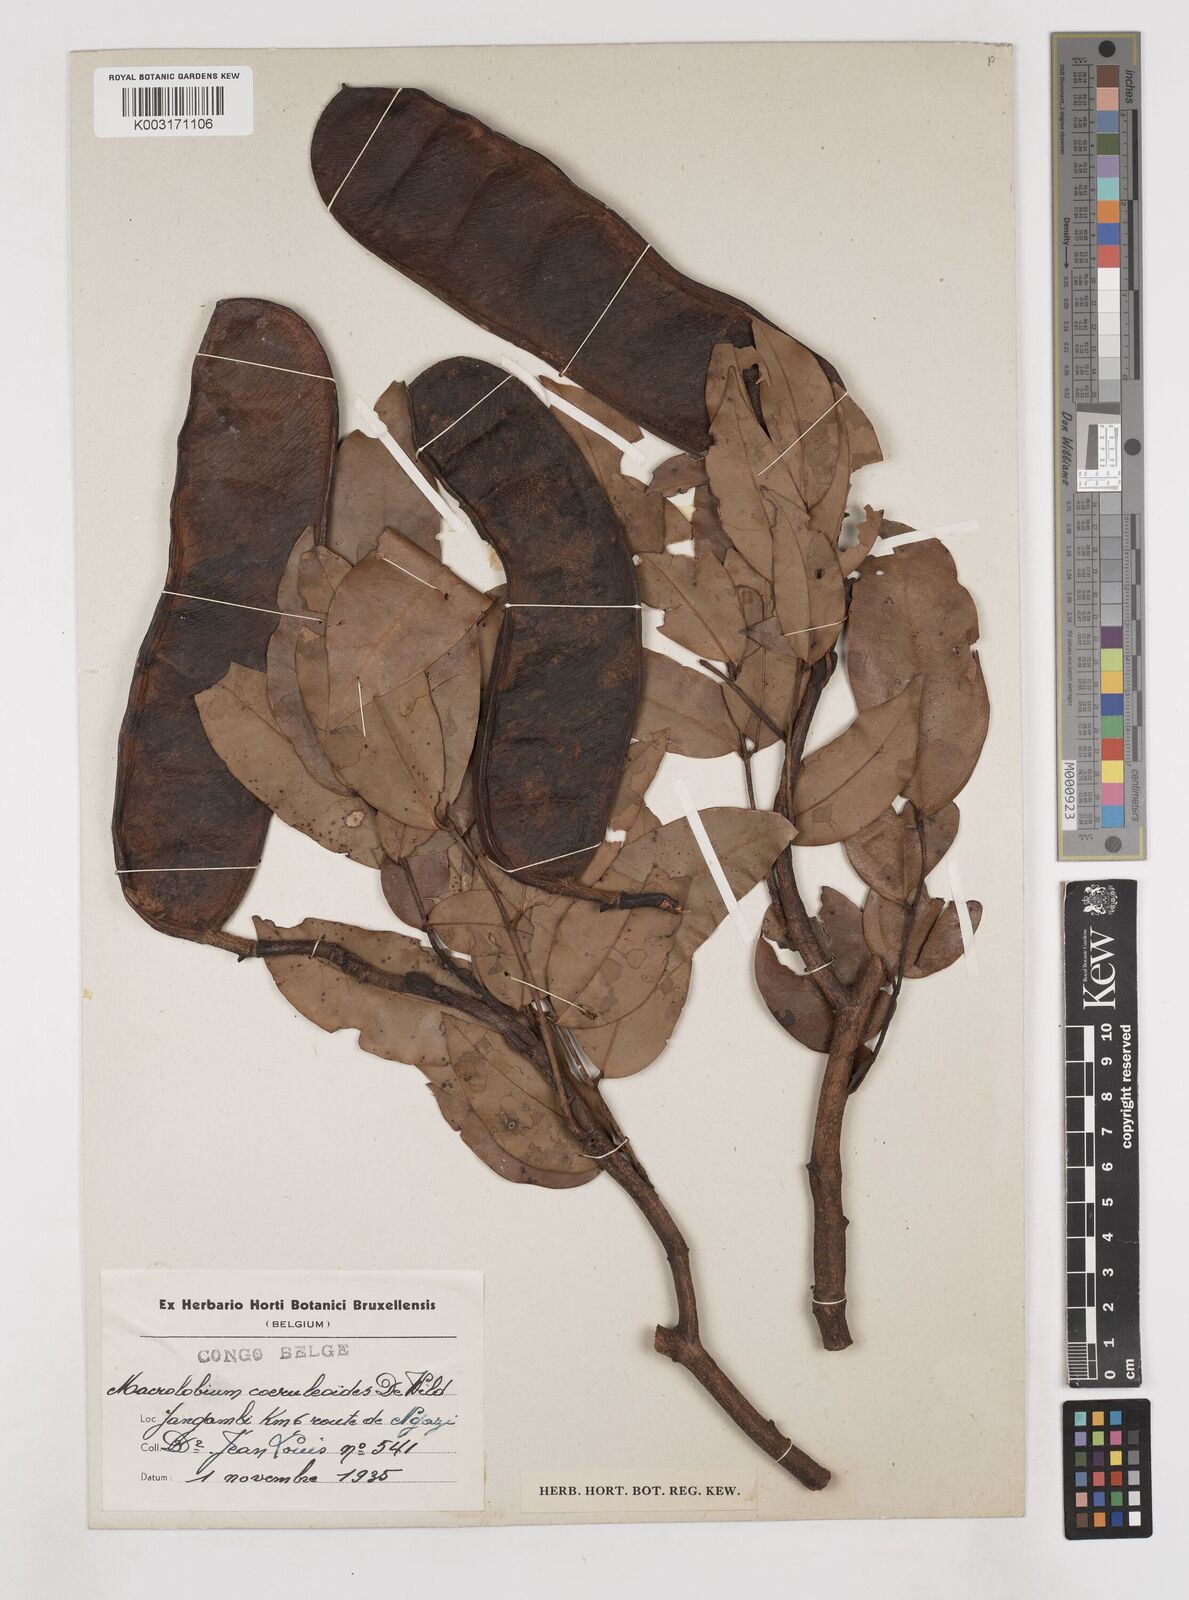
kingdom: Plantae
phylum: Tracheophyta
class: Magnoliopsida
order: Fabales
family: Fabaceae
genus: Paramacrolobium
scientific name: Paramacrolobium coeruleum
